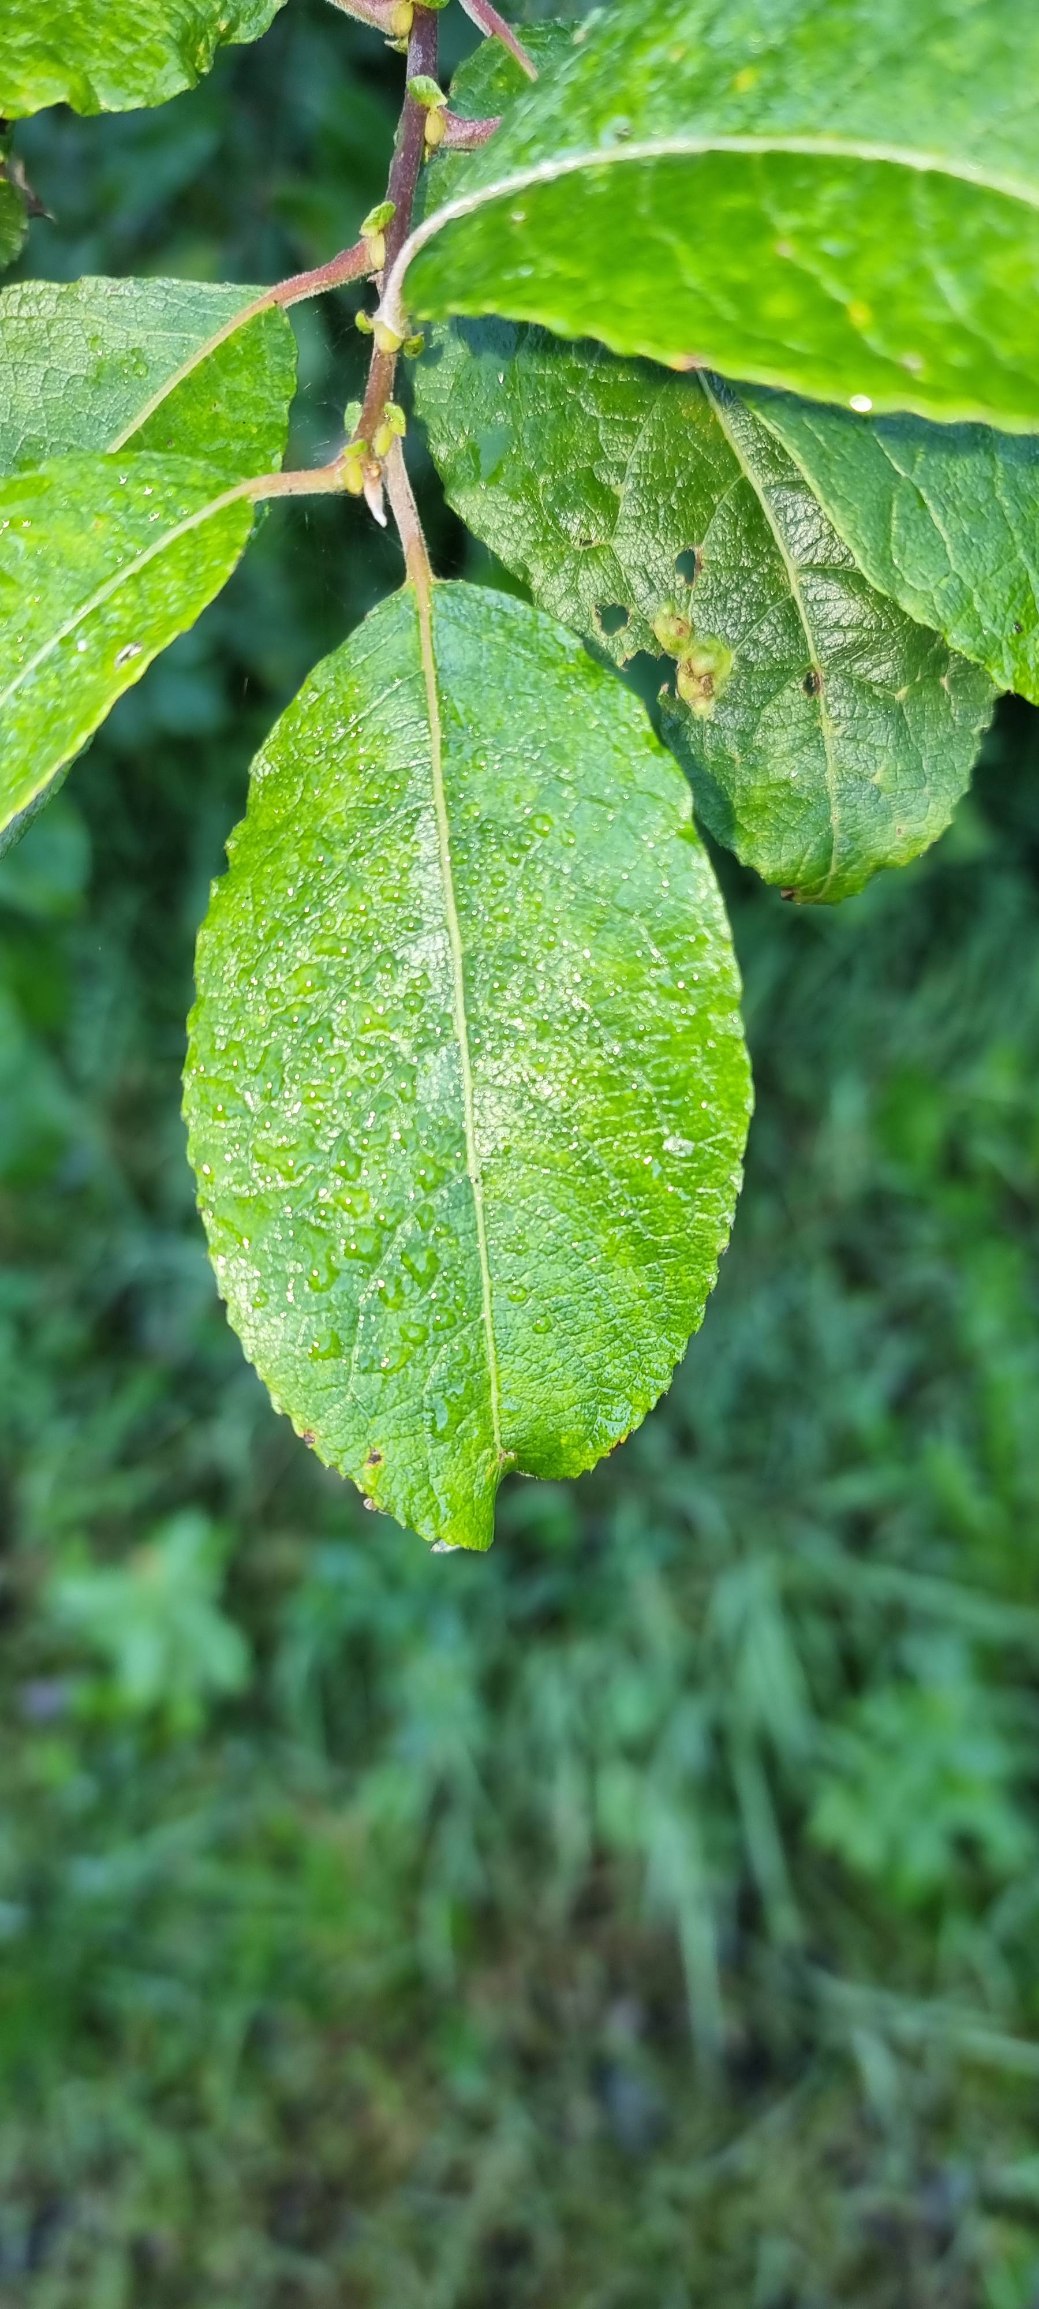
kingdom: Plantae
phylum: Tracheophyta
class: Magnoliopsida
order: Malpighiales
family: Salicaceae
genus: Salix
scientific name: Salix caprea
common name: Selje-pil
